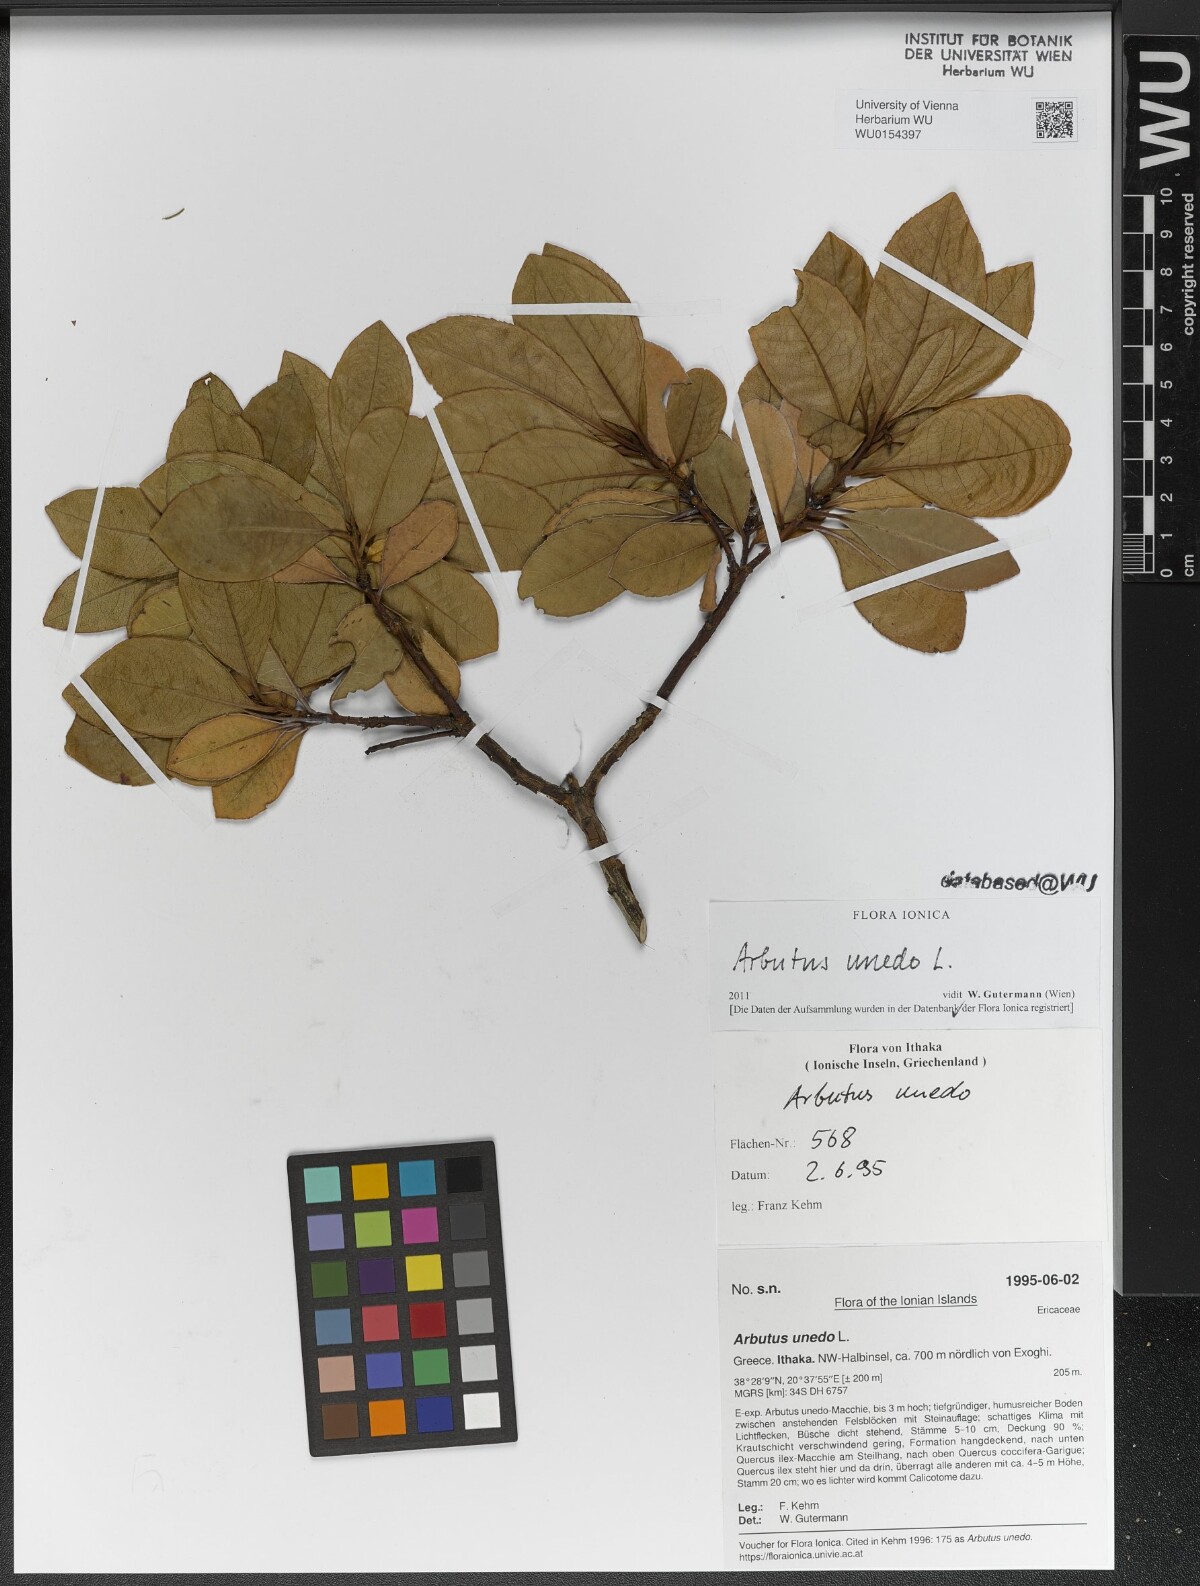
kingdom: Plantae
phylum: Tracheophyta
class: Magnoliopsida
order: Ericales
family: Ericaceae
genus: Arbutus
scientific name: Arbutus unedo
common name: Strawberry-tree
